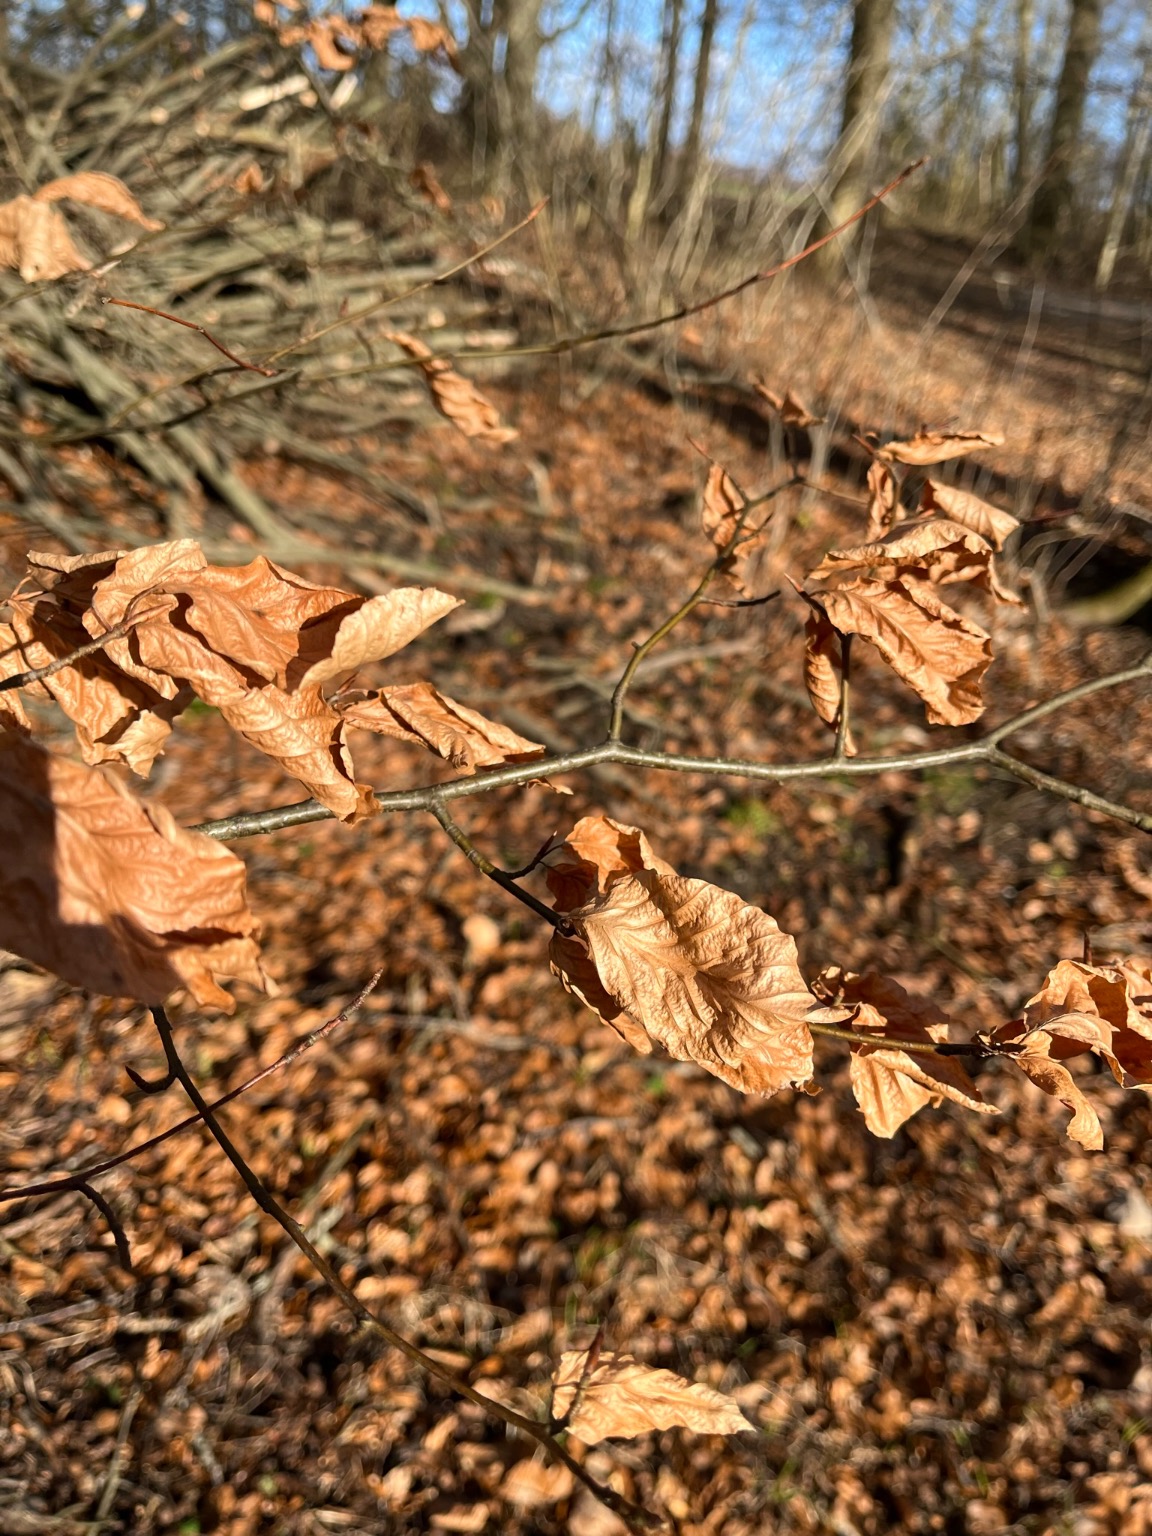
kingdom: Plantae
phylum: Tracheophyta
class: Magnoliopsida
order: Fagales
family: Fagaceae
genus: Fagus
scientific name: Fagus sylvatica
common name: Bøg
